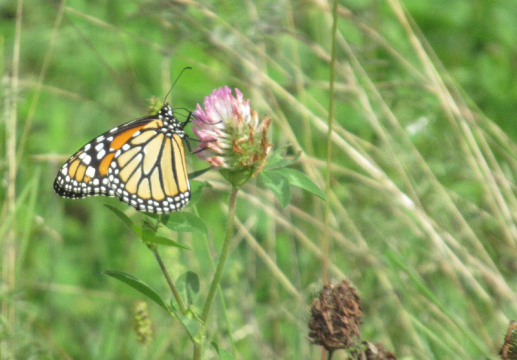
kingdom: Animalia
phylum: Arthropoda
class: Insecta
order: Lepidoptera
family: Nymphalidae
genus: Danaus
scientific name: Danaus plexippus
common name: Monarch
